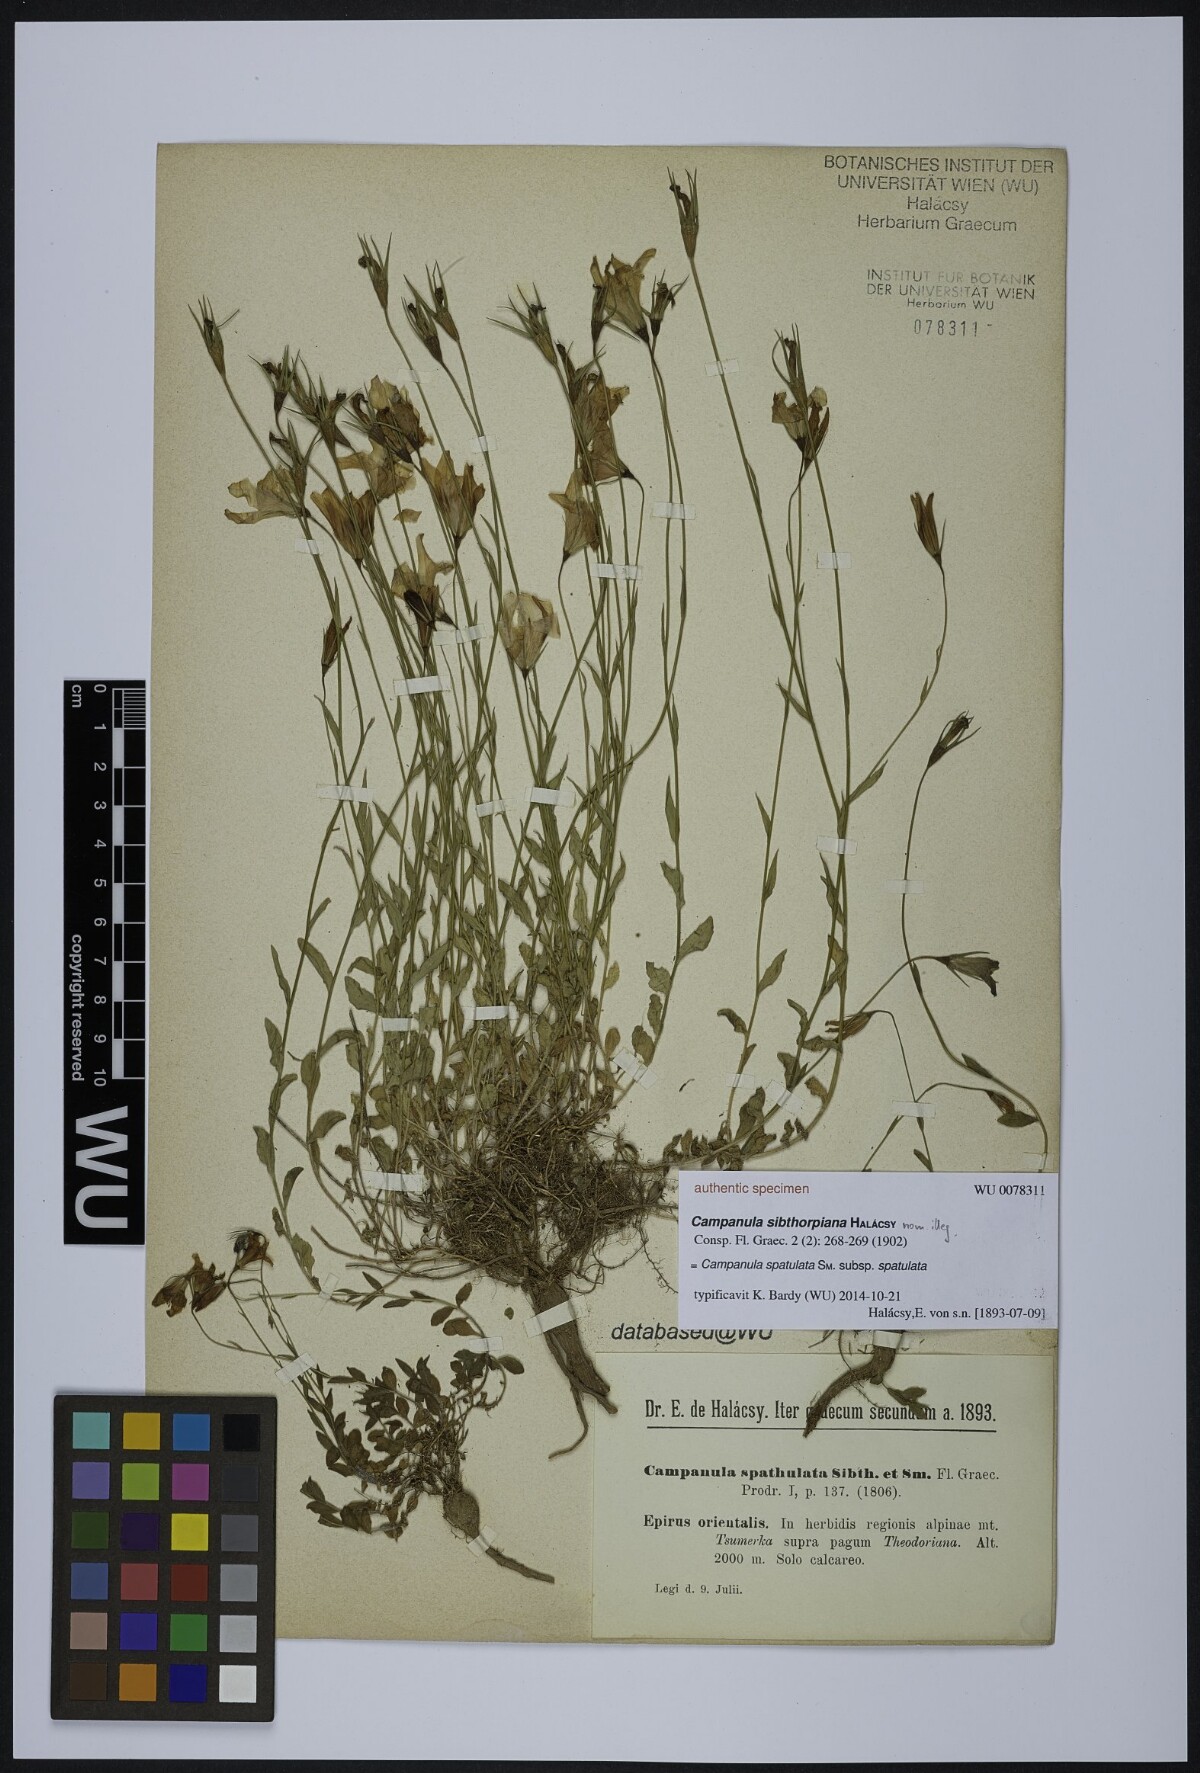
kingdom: Plantae
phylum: Tracheophyta
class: Magnoliopsida
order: Asterales
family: Campanulaceae
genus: Campanula
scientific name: Campanula spatulata
